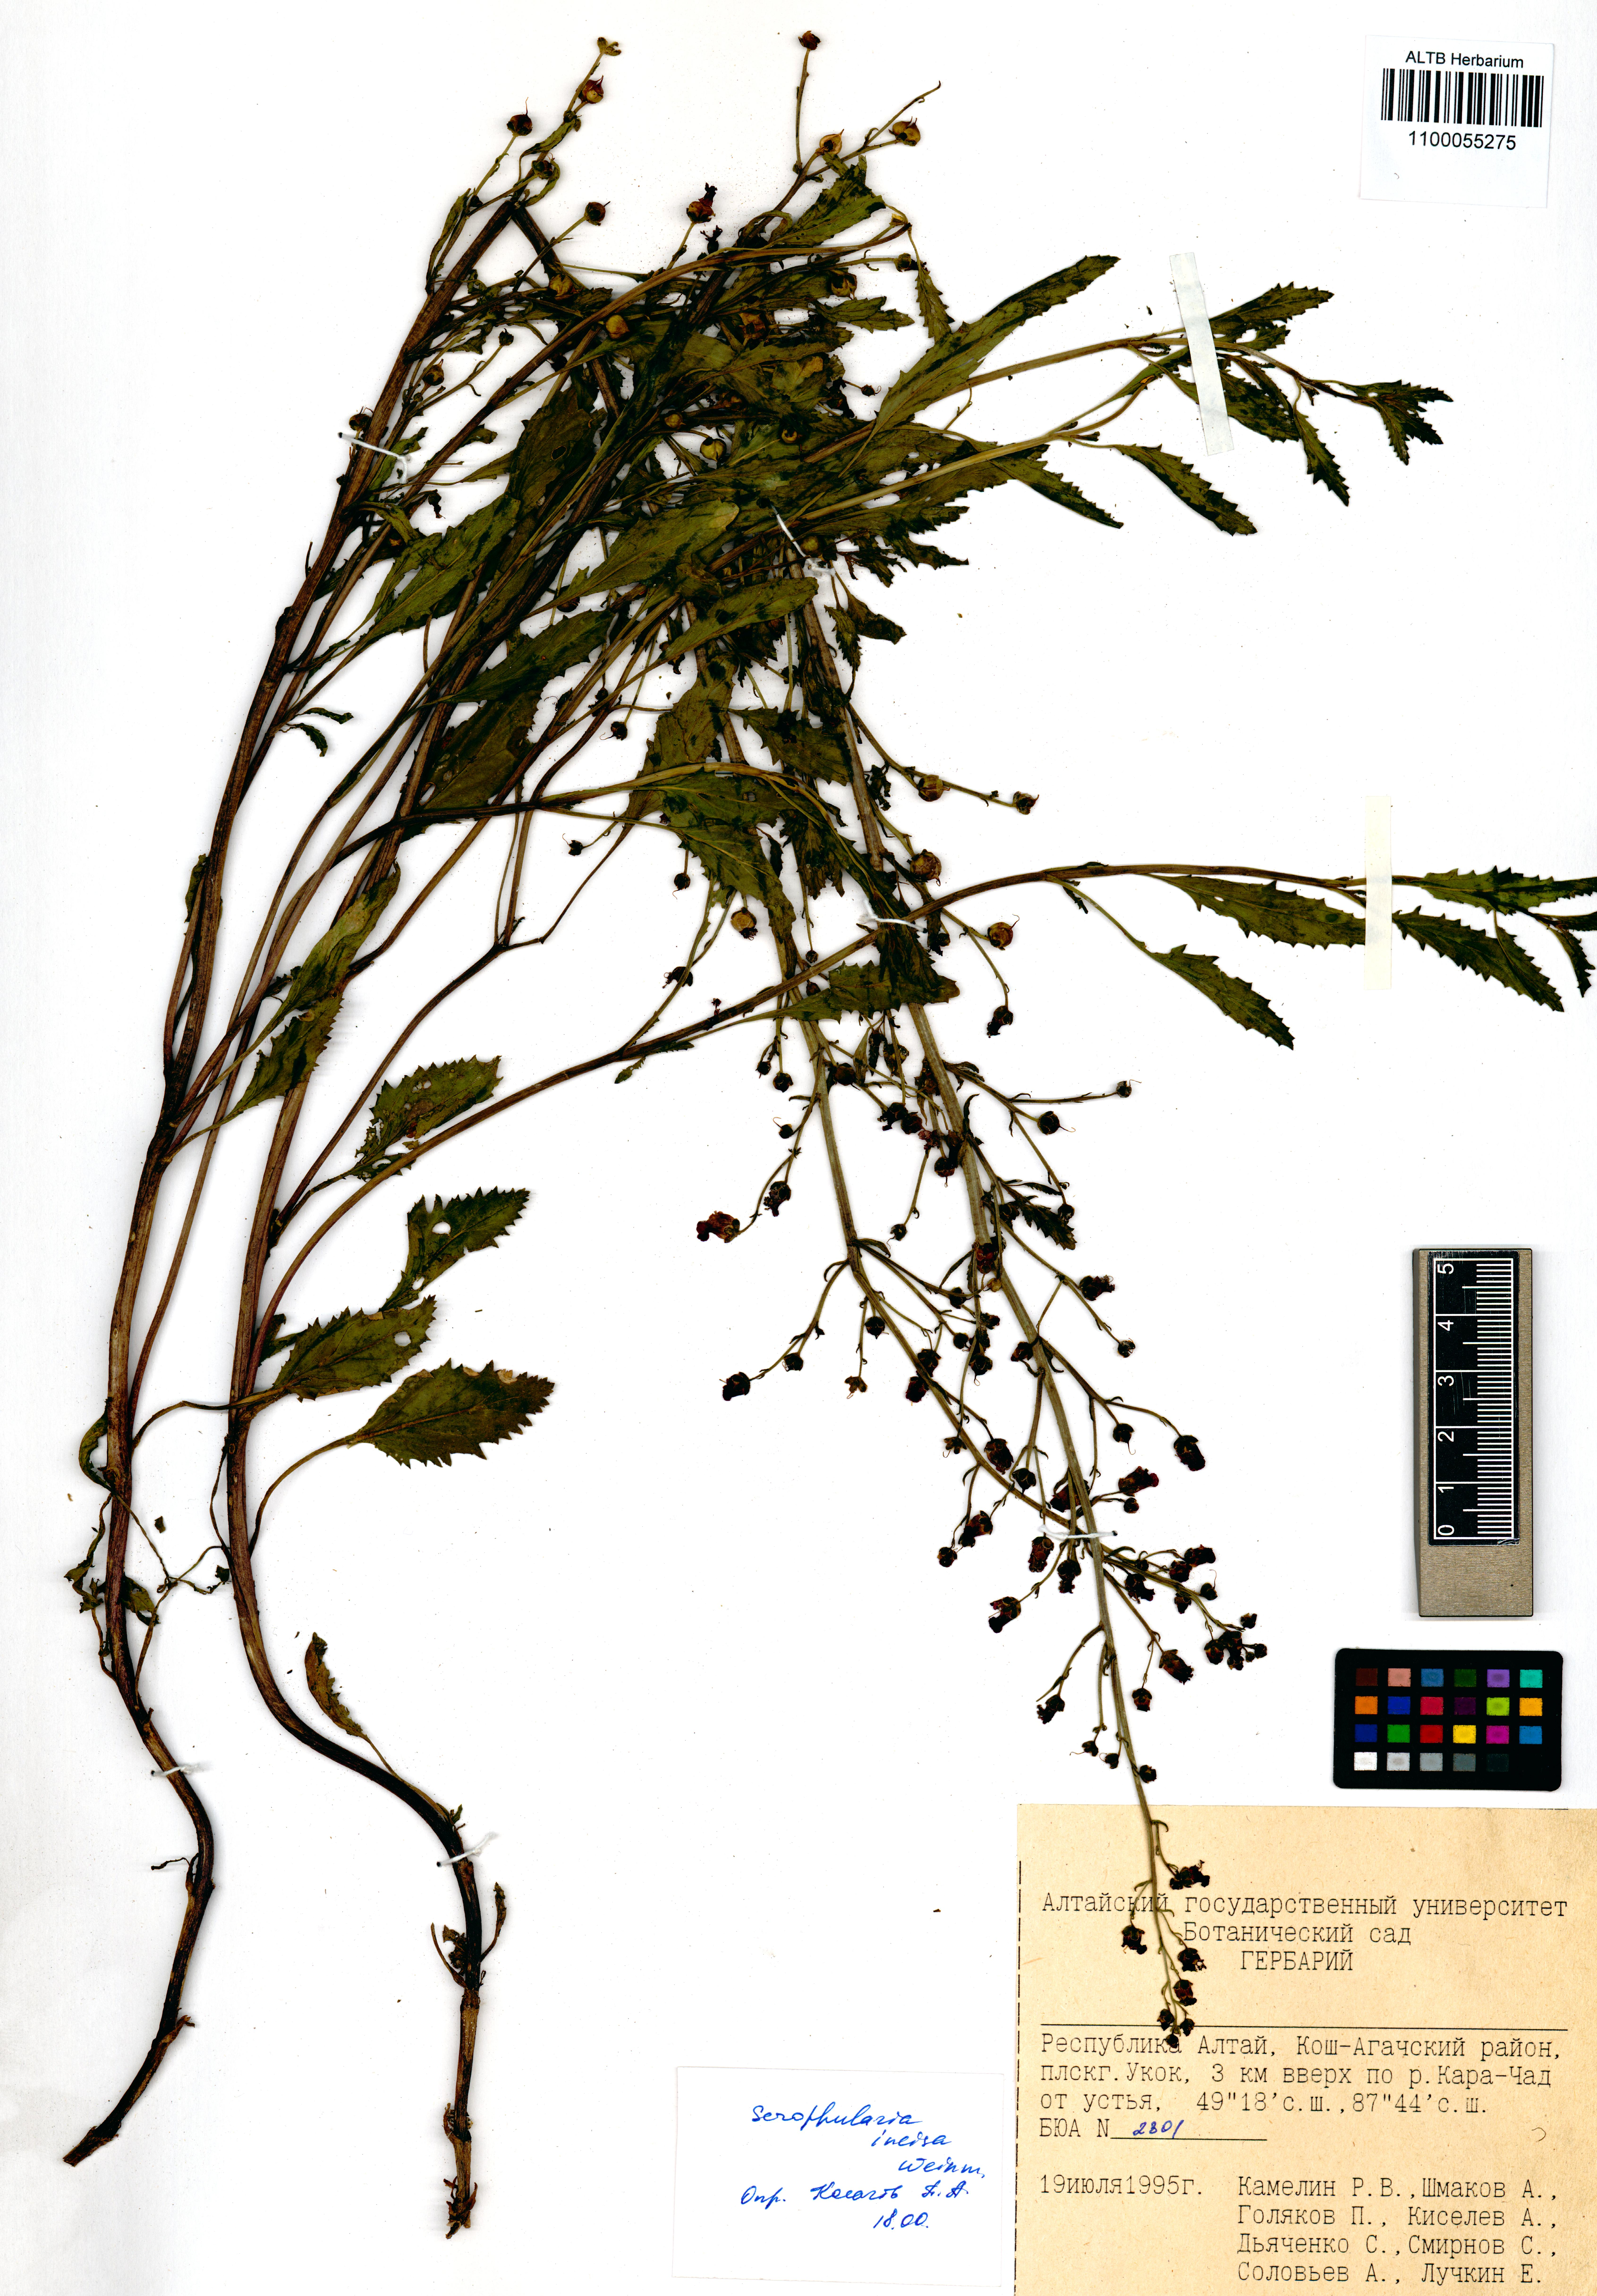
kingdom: Plantae
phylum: Tracheophyta
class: Magnoliopsida
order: Lamiales
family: Scrophulariaceae
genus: Scrophularia
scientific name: Scrophularia incisa
